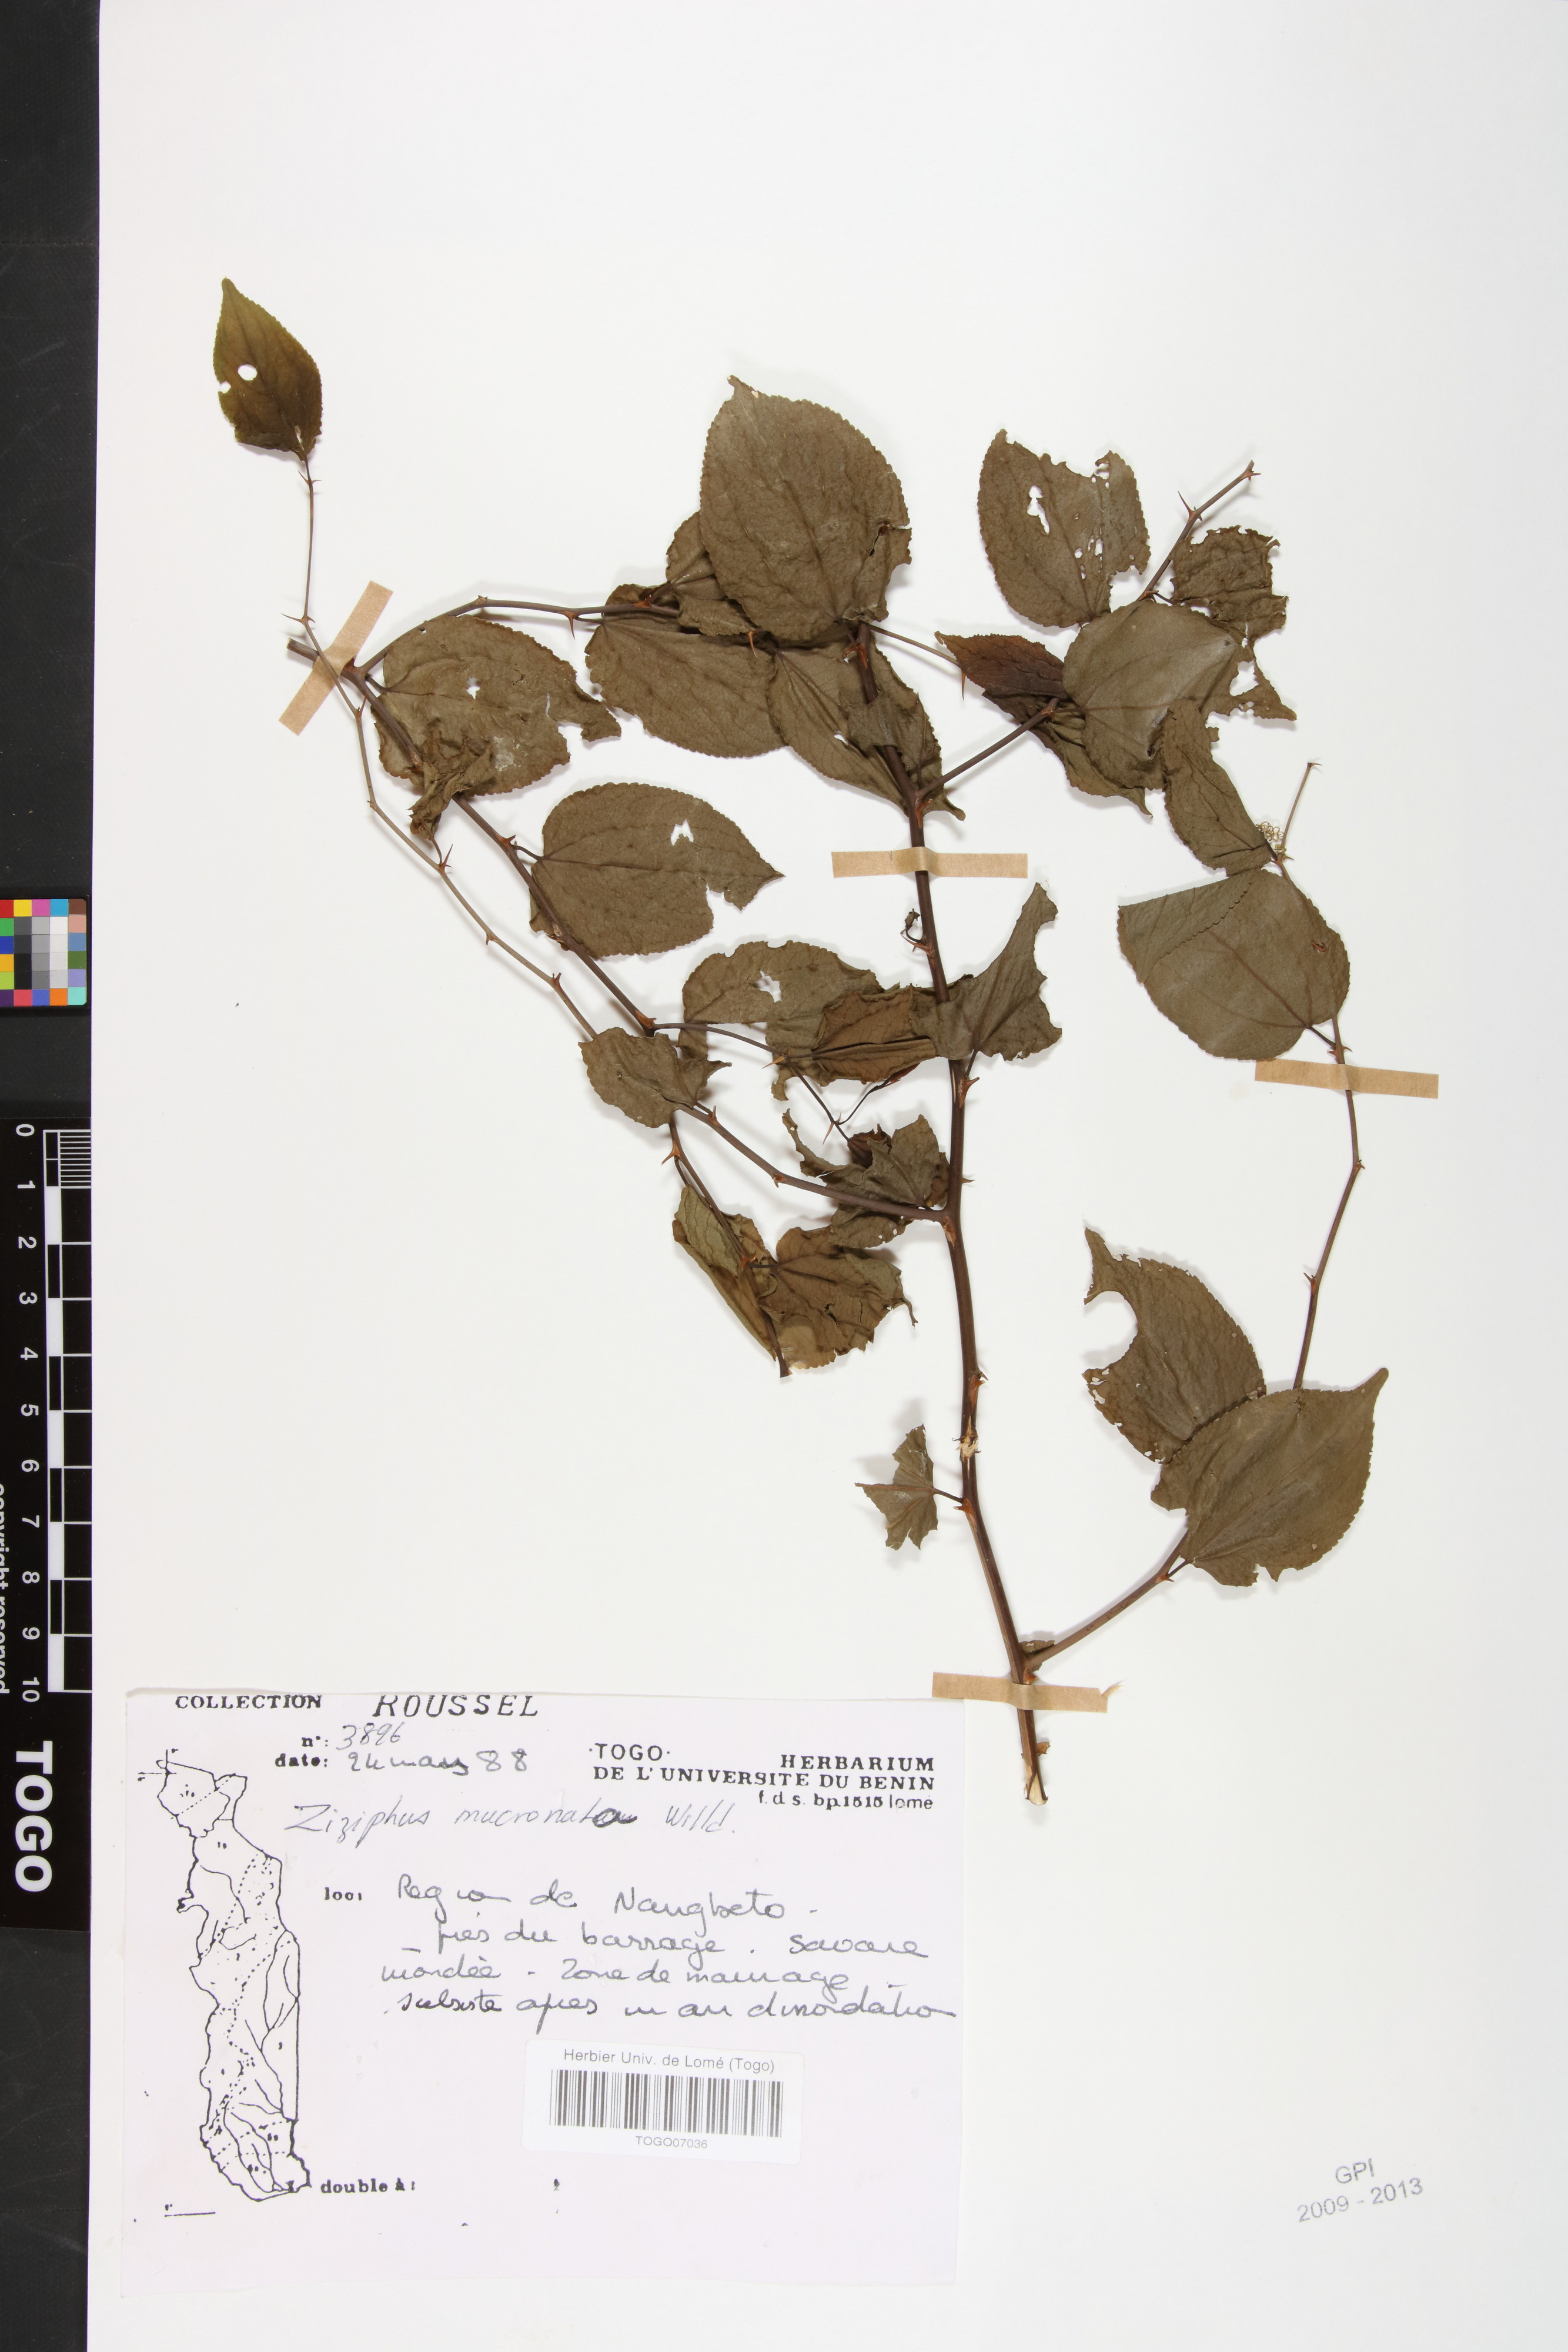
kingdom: Plantae
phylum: Tracheophyta
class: Magnoliopsida
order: Rosales
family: Rhamnaceae
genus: Ziziphus
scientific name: Ziziphus mucronata
